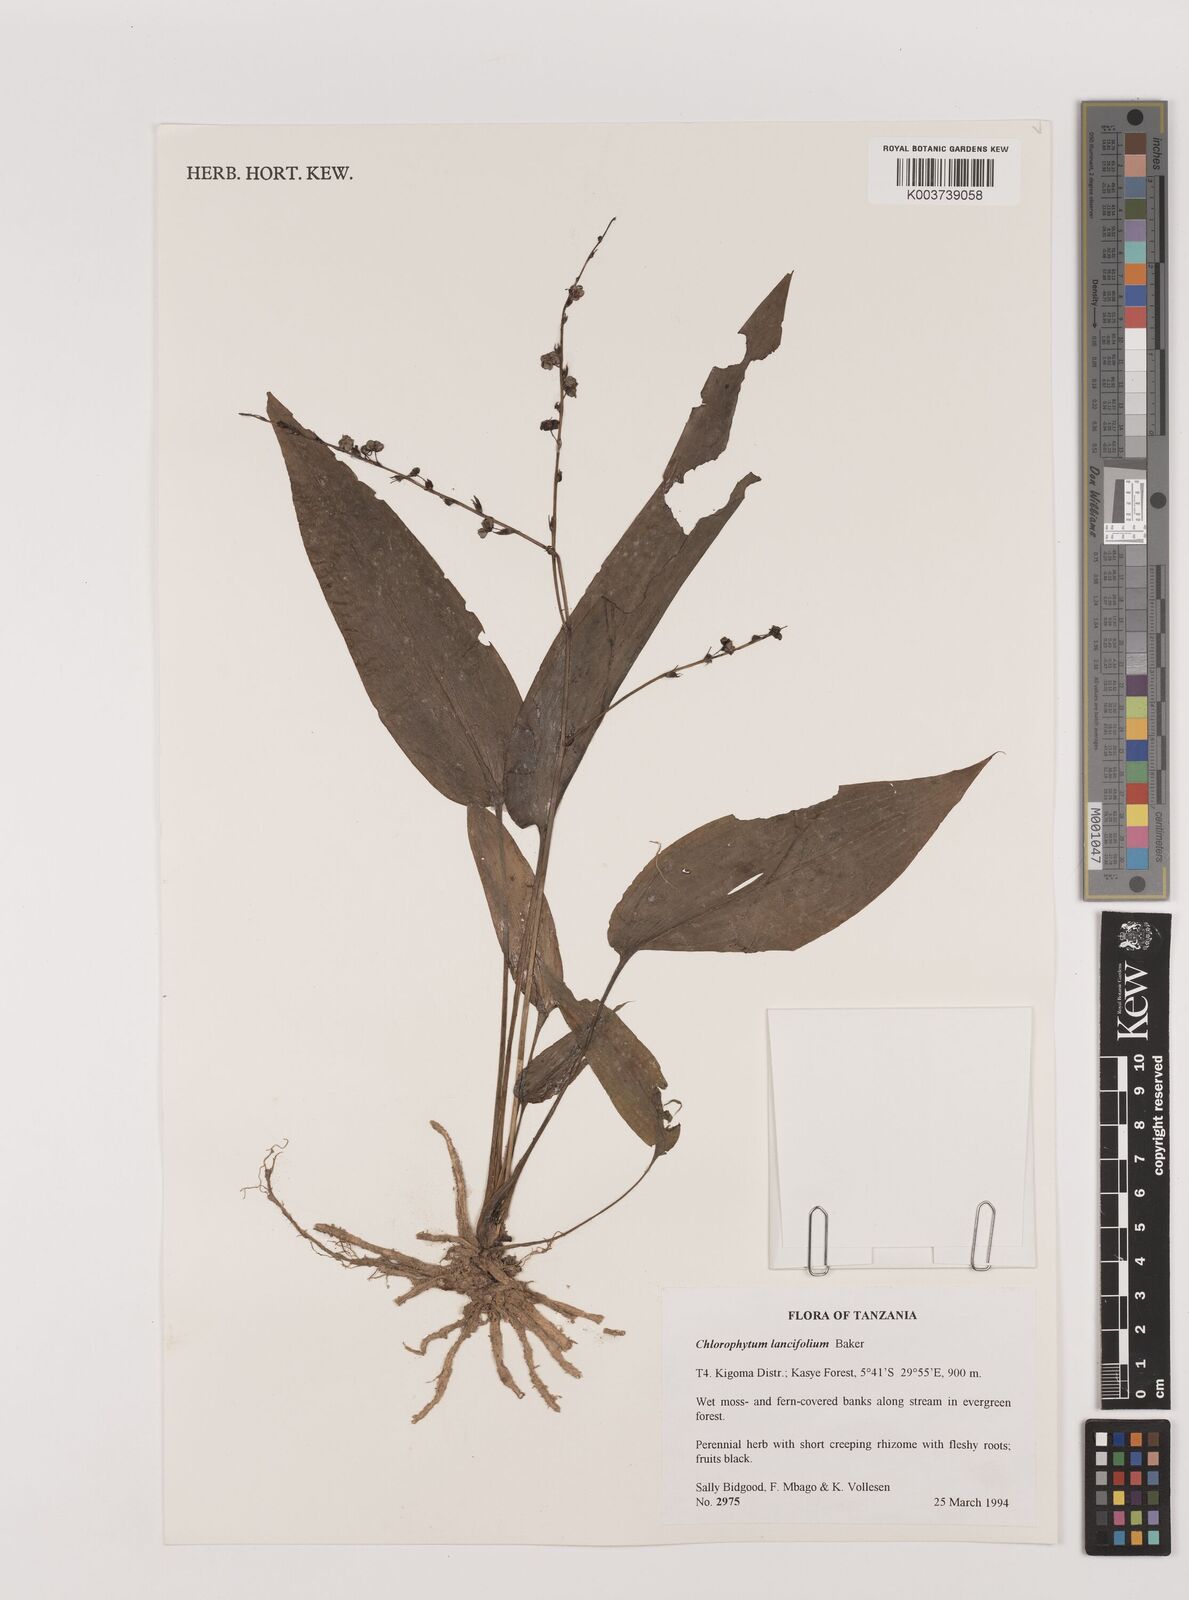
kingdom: Plantae
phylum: Tracheophyta
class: Liliopsida
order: Asparagales
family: Asparagaceae
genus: Chlorophytum
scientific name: Chlorophytum lancifolium
